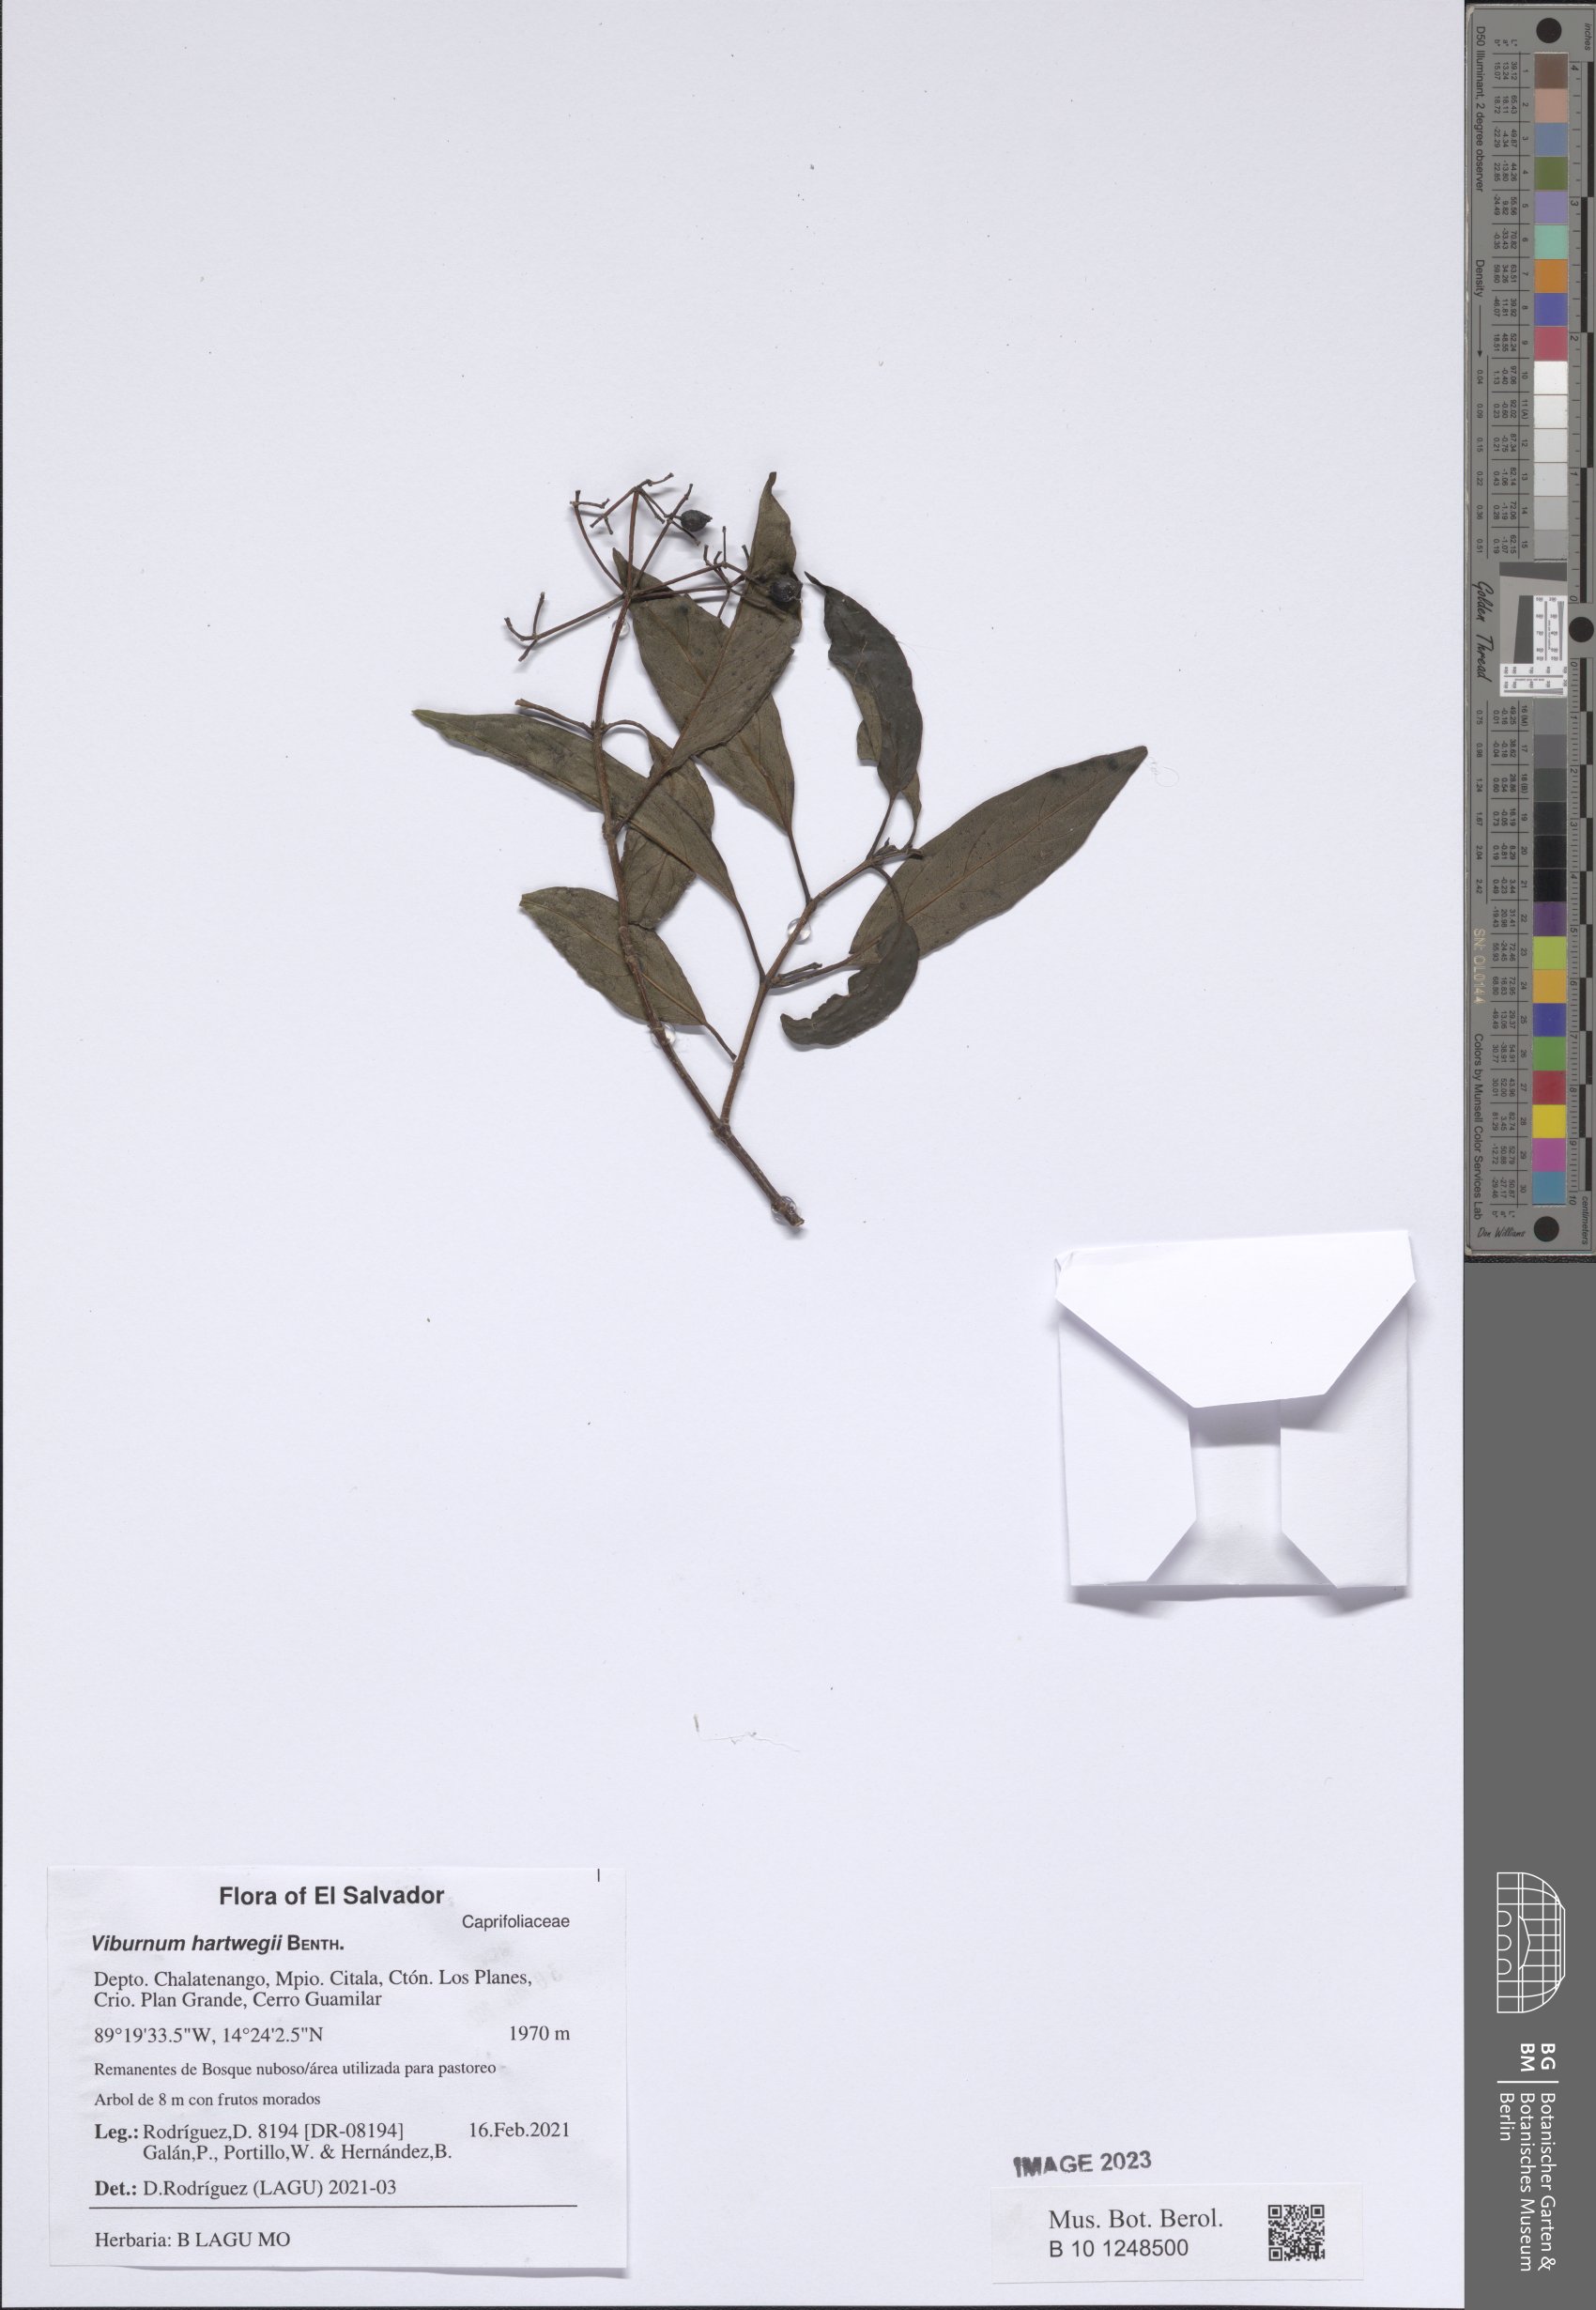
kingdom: Plantae
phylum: Tracheophyta
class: Magnoliopsida
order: Dipsacales
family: Viburnaceae
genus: Viburnum
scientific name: Viburnum hartwegii
